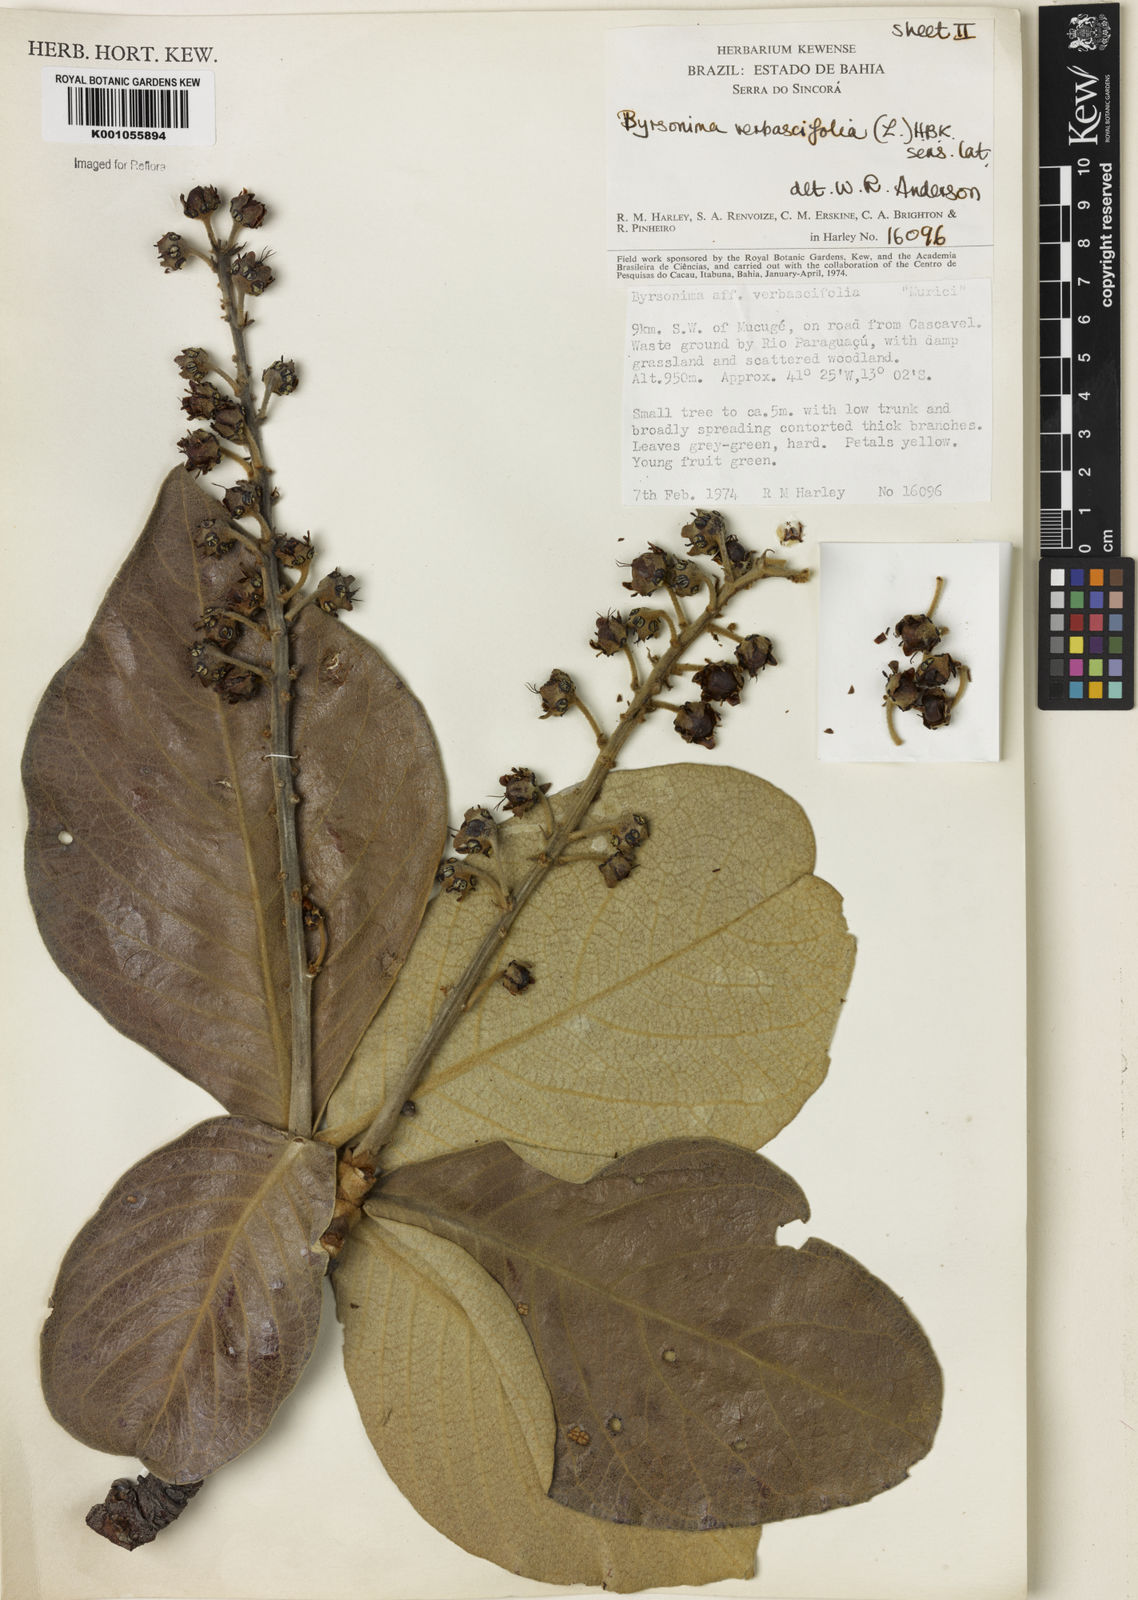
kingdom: Plantae
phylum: Tracheophyta
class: Magnoliopsida
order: Malpighiales
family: Malpighiaceae
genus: Byrsonima
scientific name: Byrsonima verbascifolia
